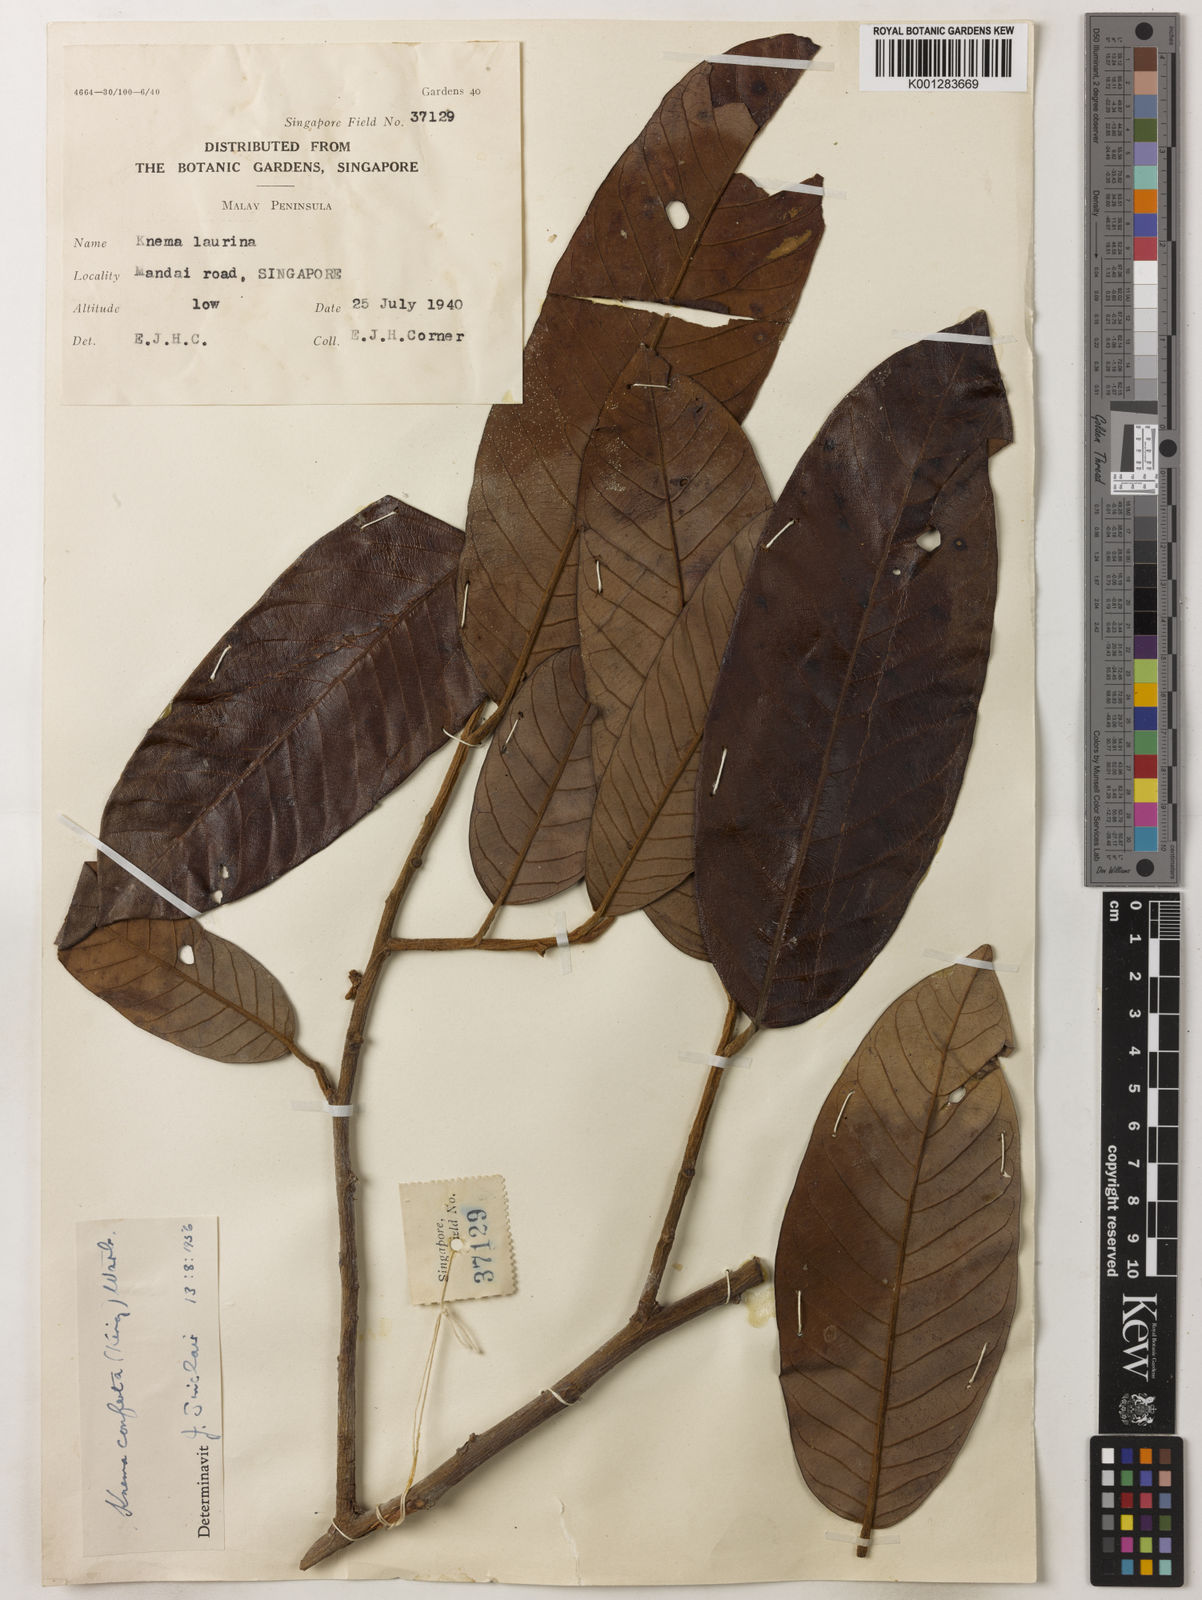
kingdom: Plantae
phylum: Tracheophyta
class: Magnoliopsida
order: Magnoliales
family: Myristicaceae
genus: Knema
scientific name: Knema conferta
